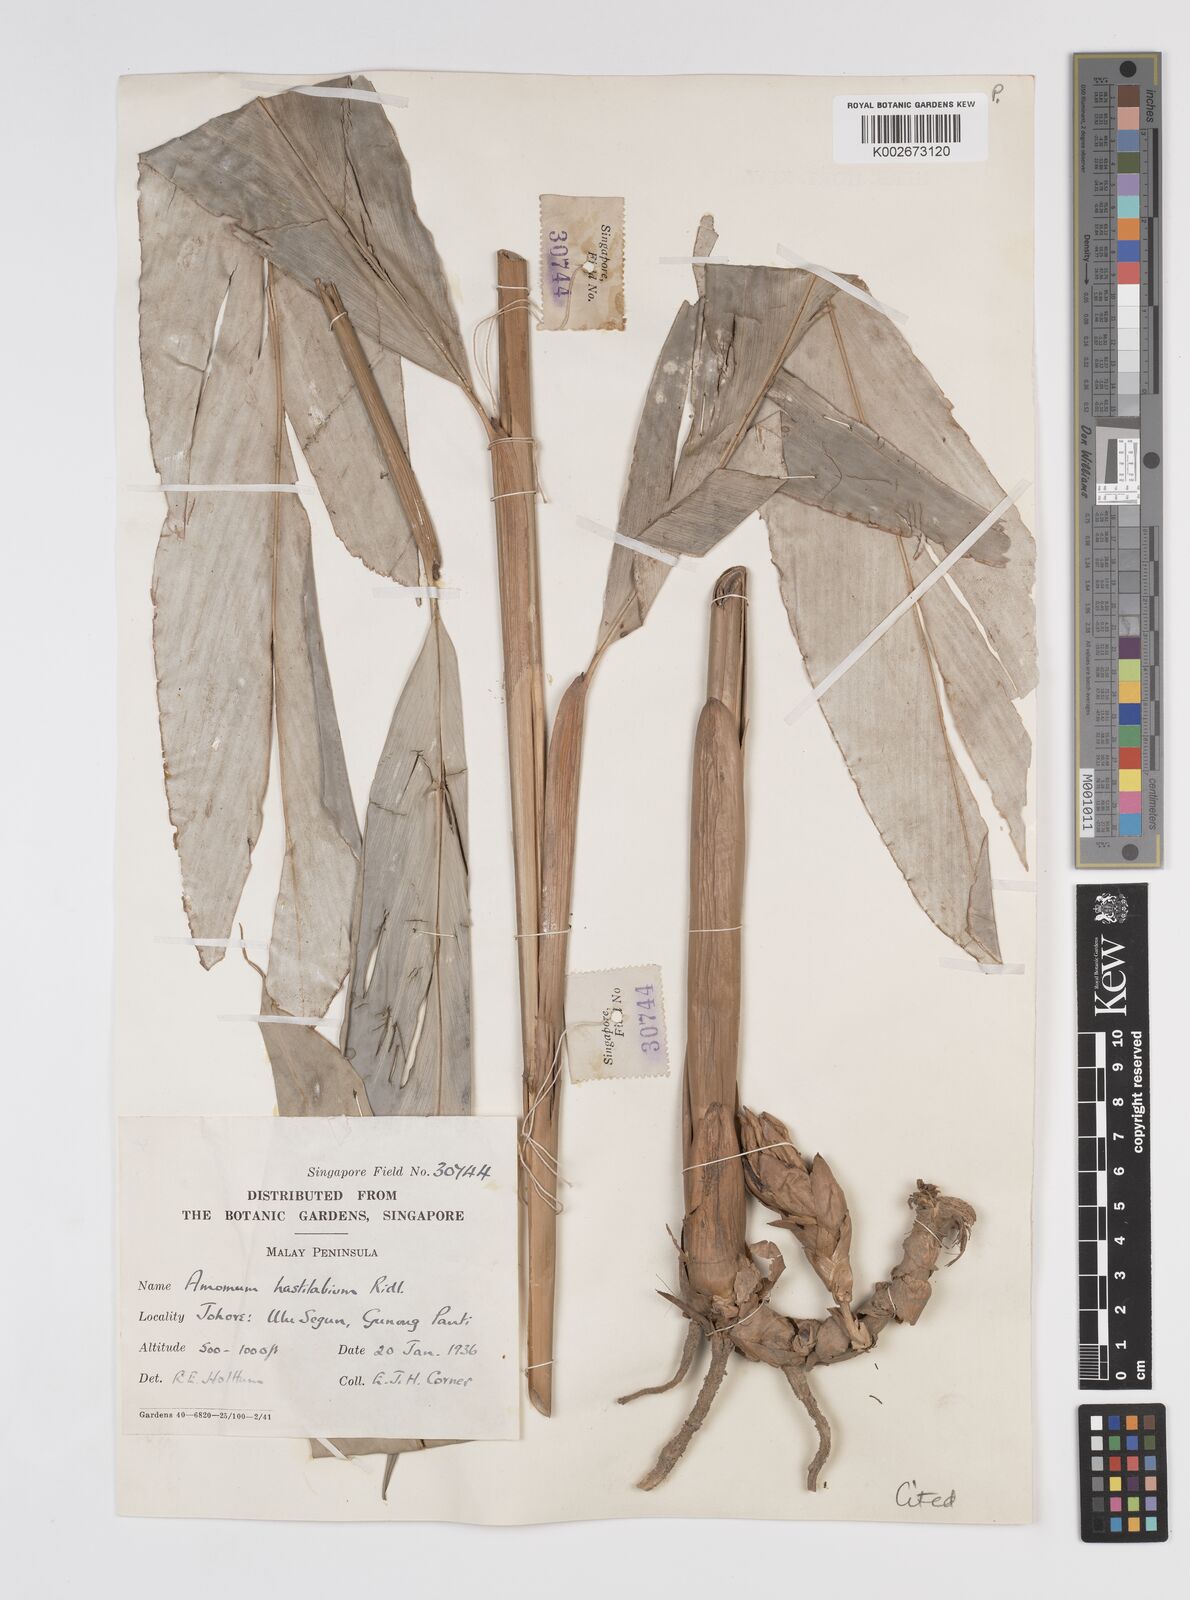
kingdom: Plantae
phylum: Tracheophyta
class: Liliopsida
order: Zingiberales
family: Zingiberaceae
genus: Sundamomum
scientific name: Sundamomum hastilabium
